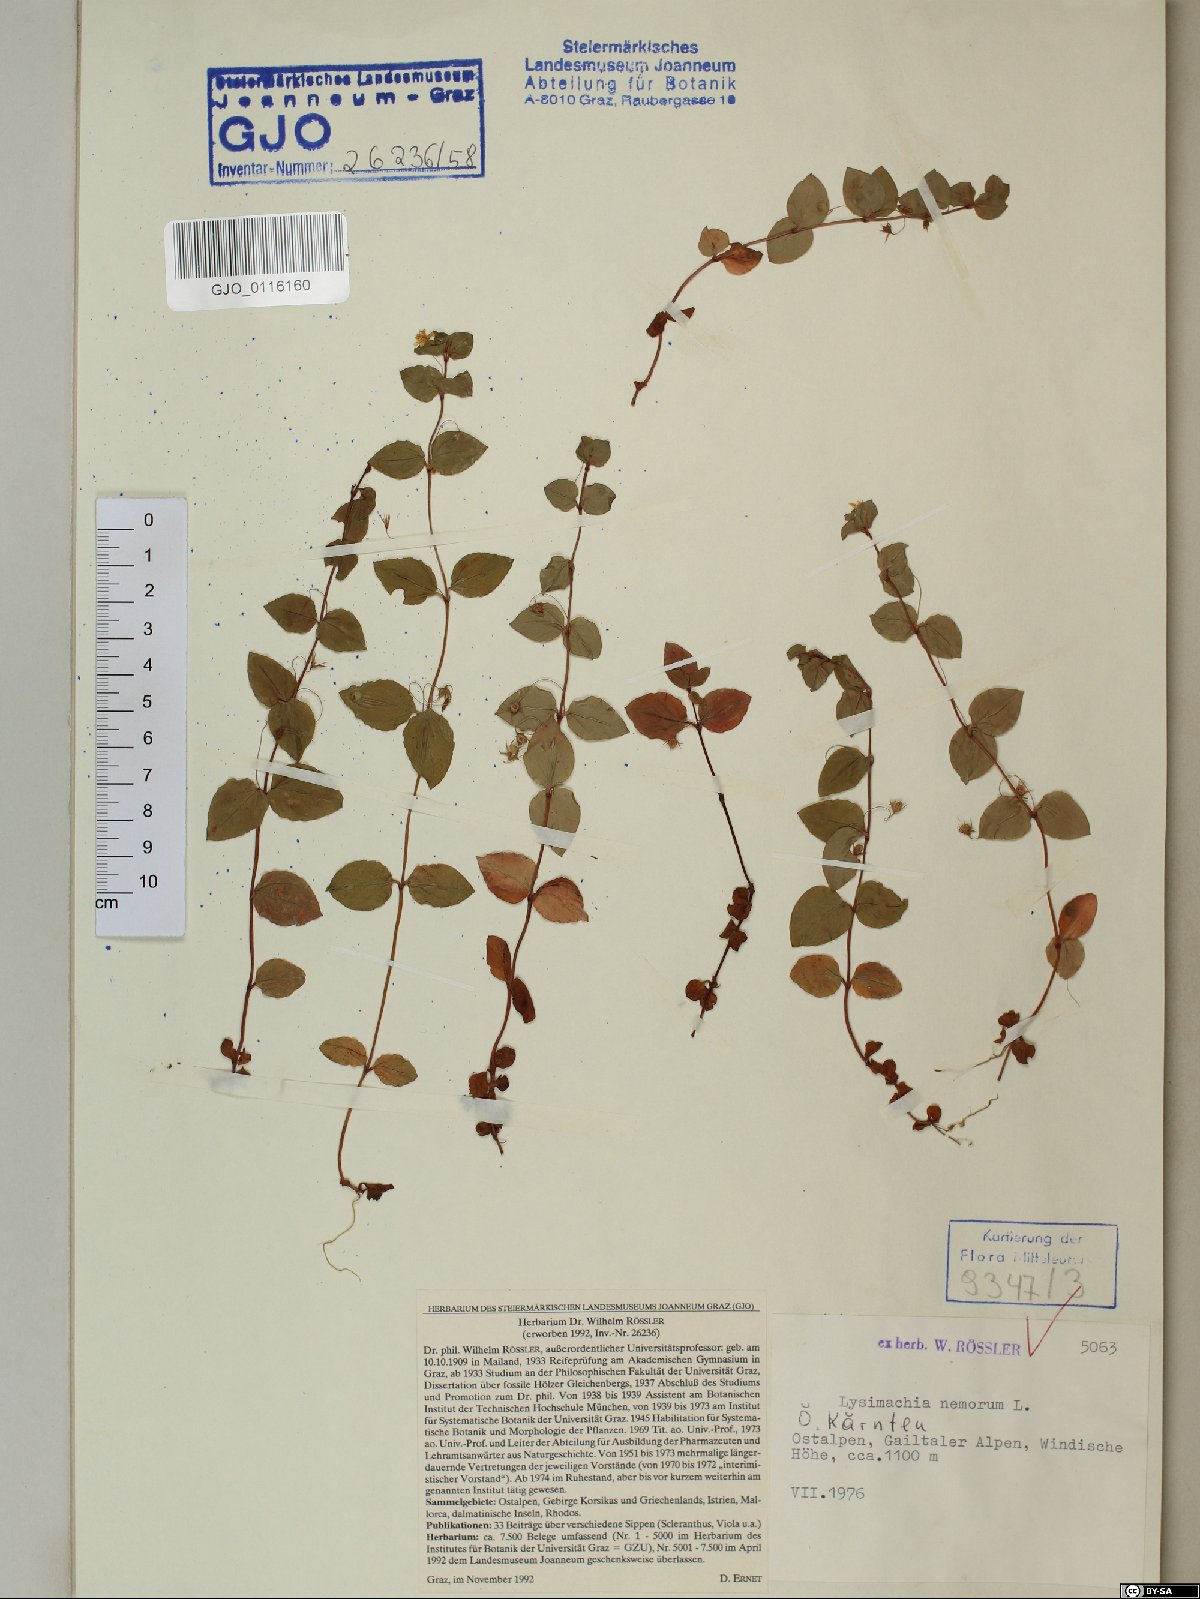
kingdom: Plantae
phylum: Tracheophyta
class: Magnoliopsida
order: Ericales
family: Primulaceae
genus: Lysimachia
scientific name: Lysimachia nemorum
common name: Yellow pimpernel
